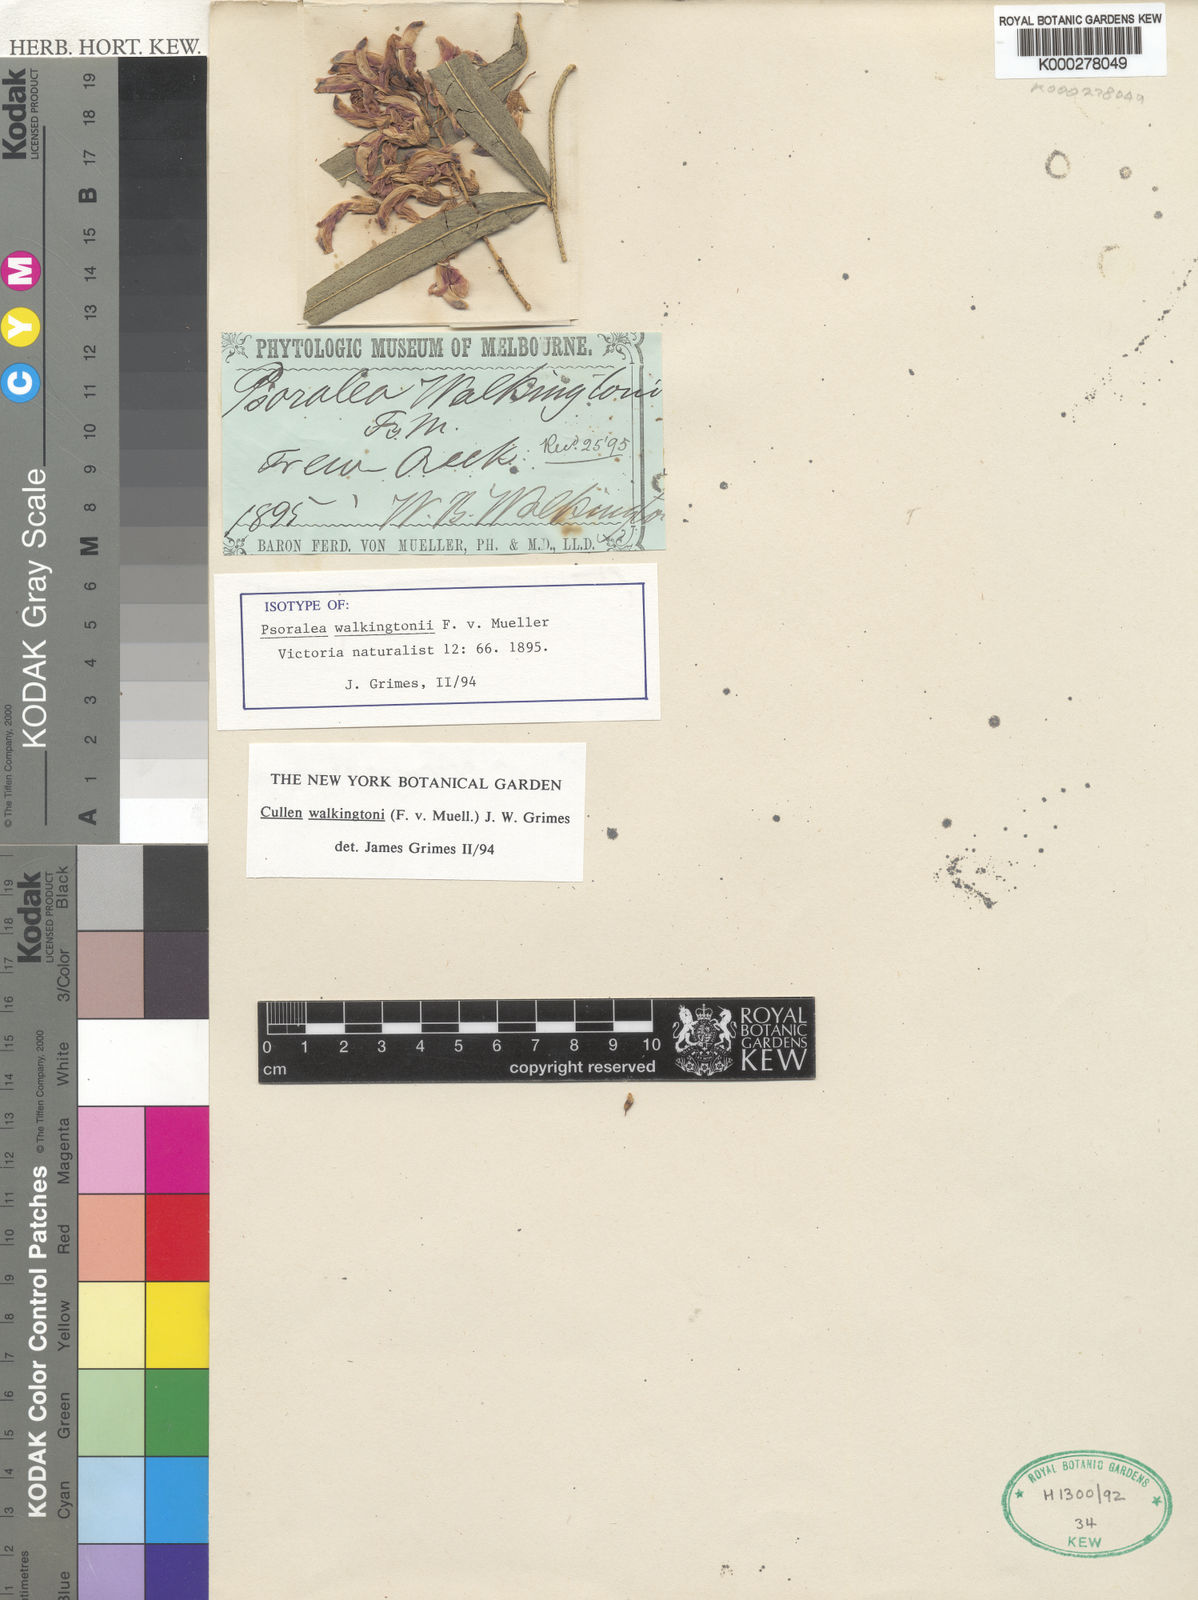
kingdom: Plantae
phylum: Tracheophyta
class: Magnoliopsida
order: Fabales
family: Fabaceae
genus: Cullen
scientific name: Cullen walkingtonii
